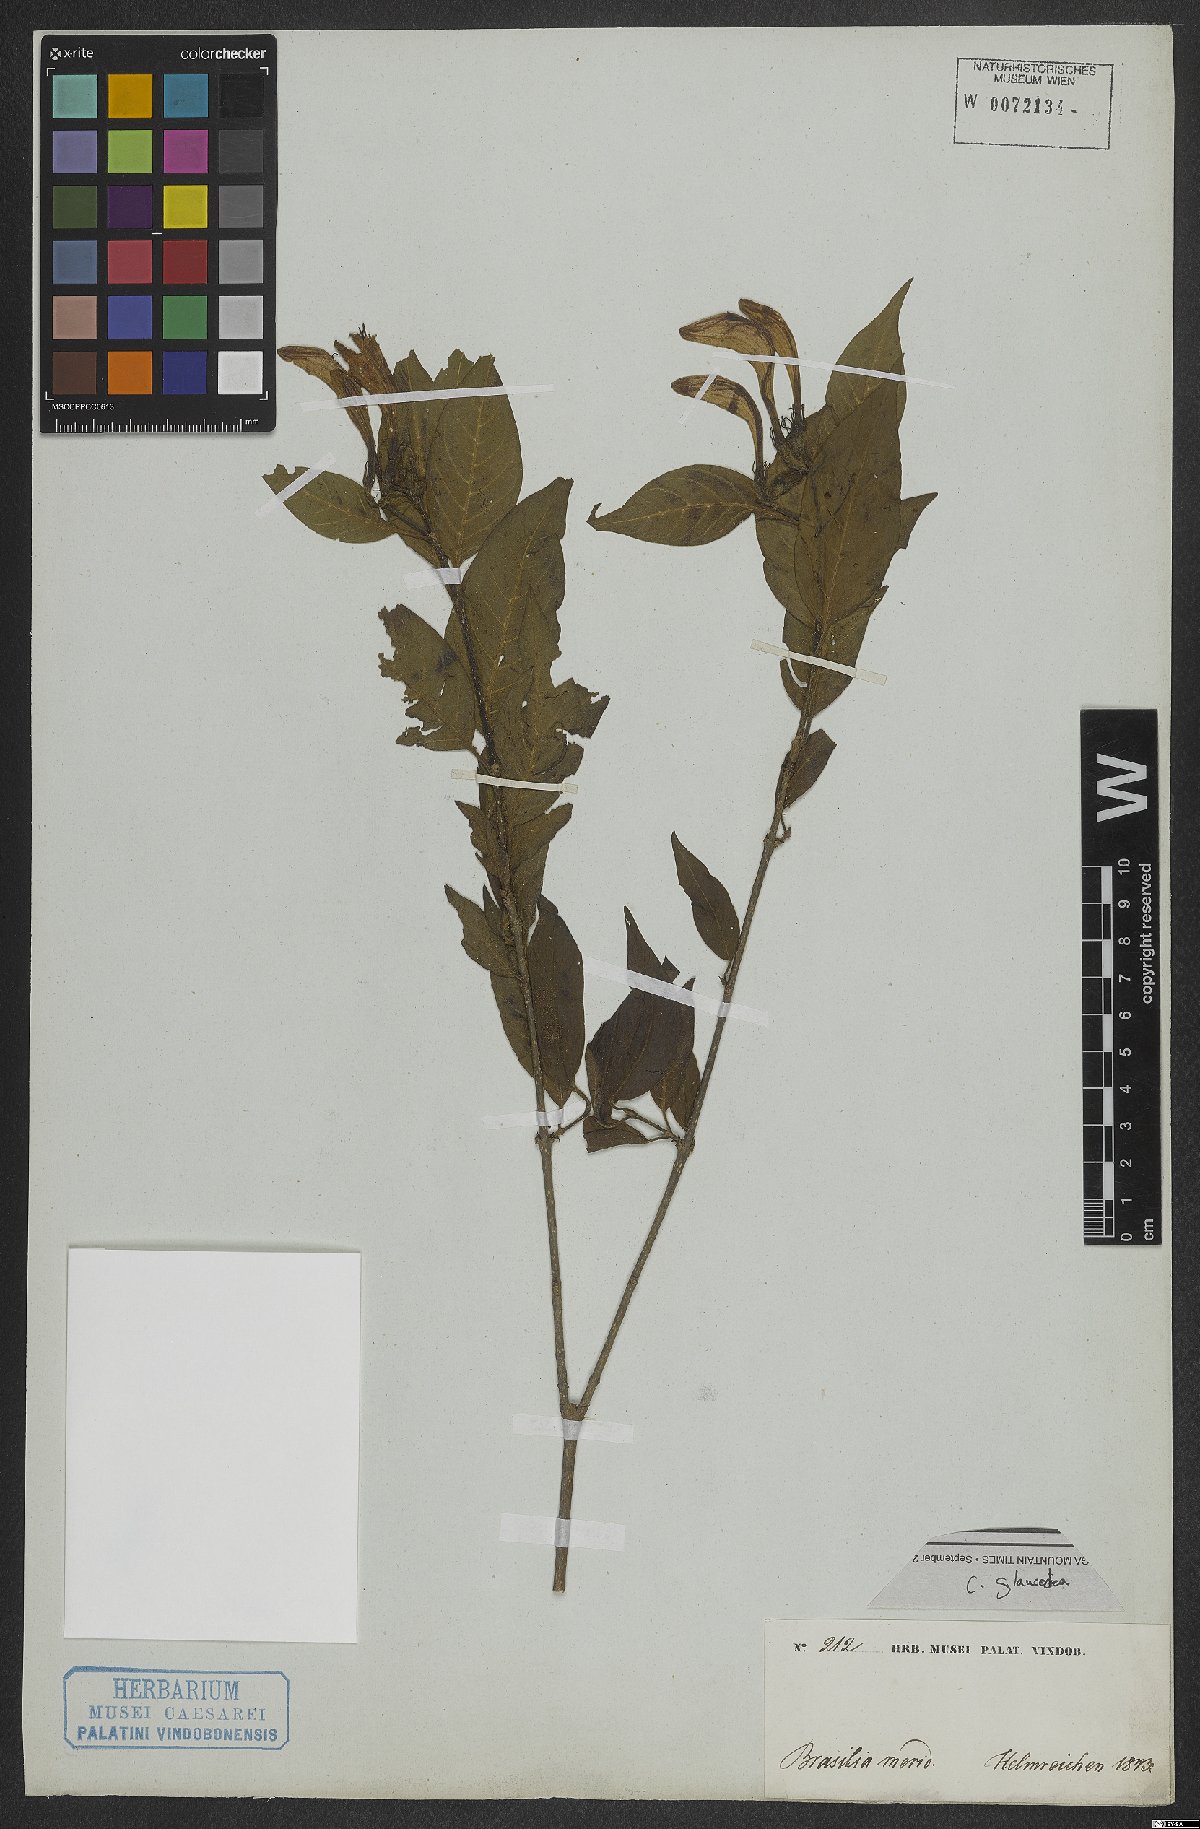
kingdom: Plantae
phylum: Tracheophyta
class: Magnoliopsida
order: Gentianales
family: Rubiaceae
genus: Coutarea
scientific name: Coutarea
